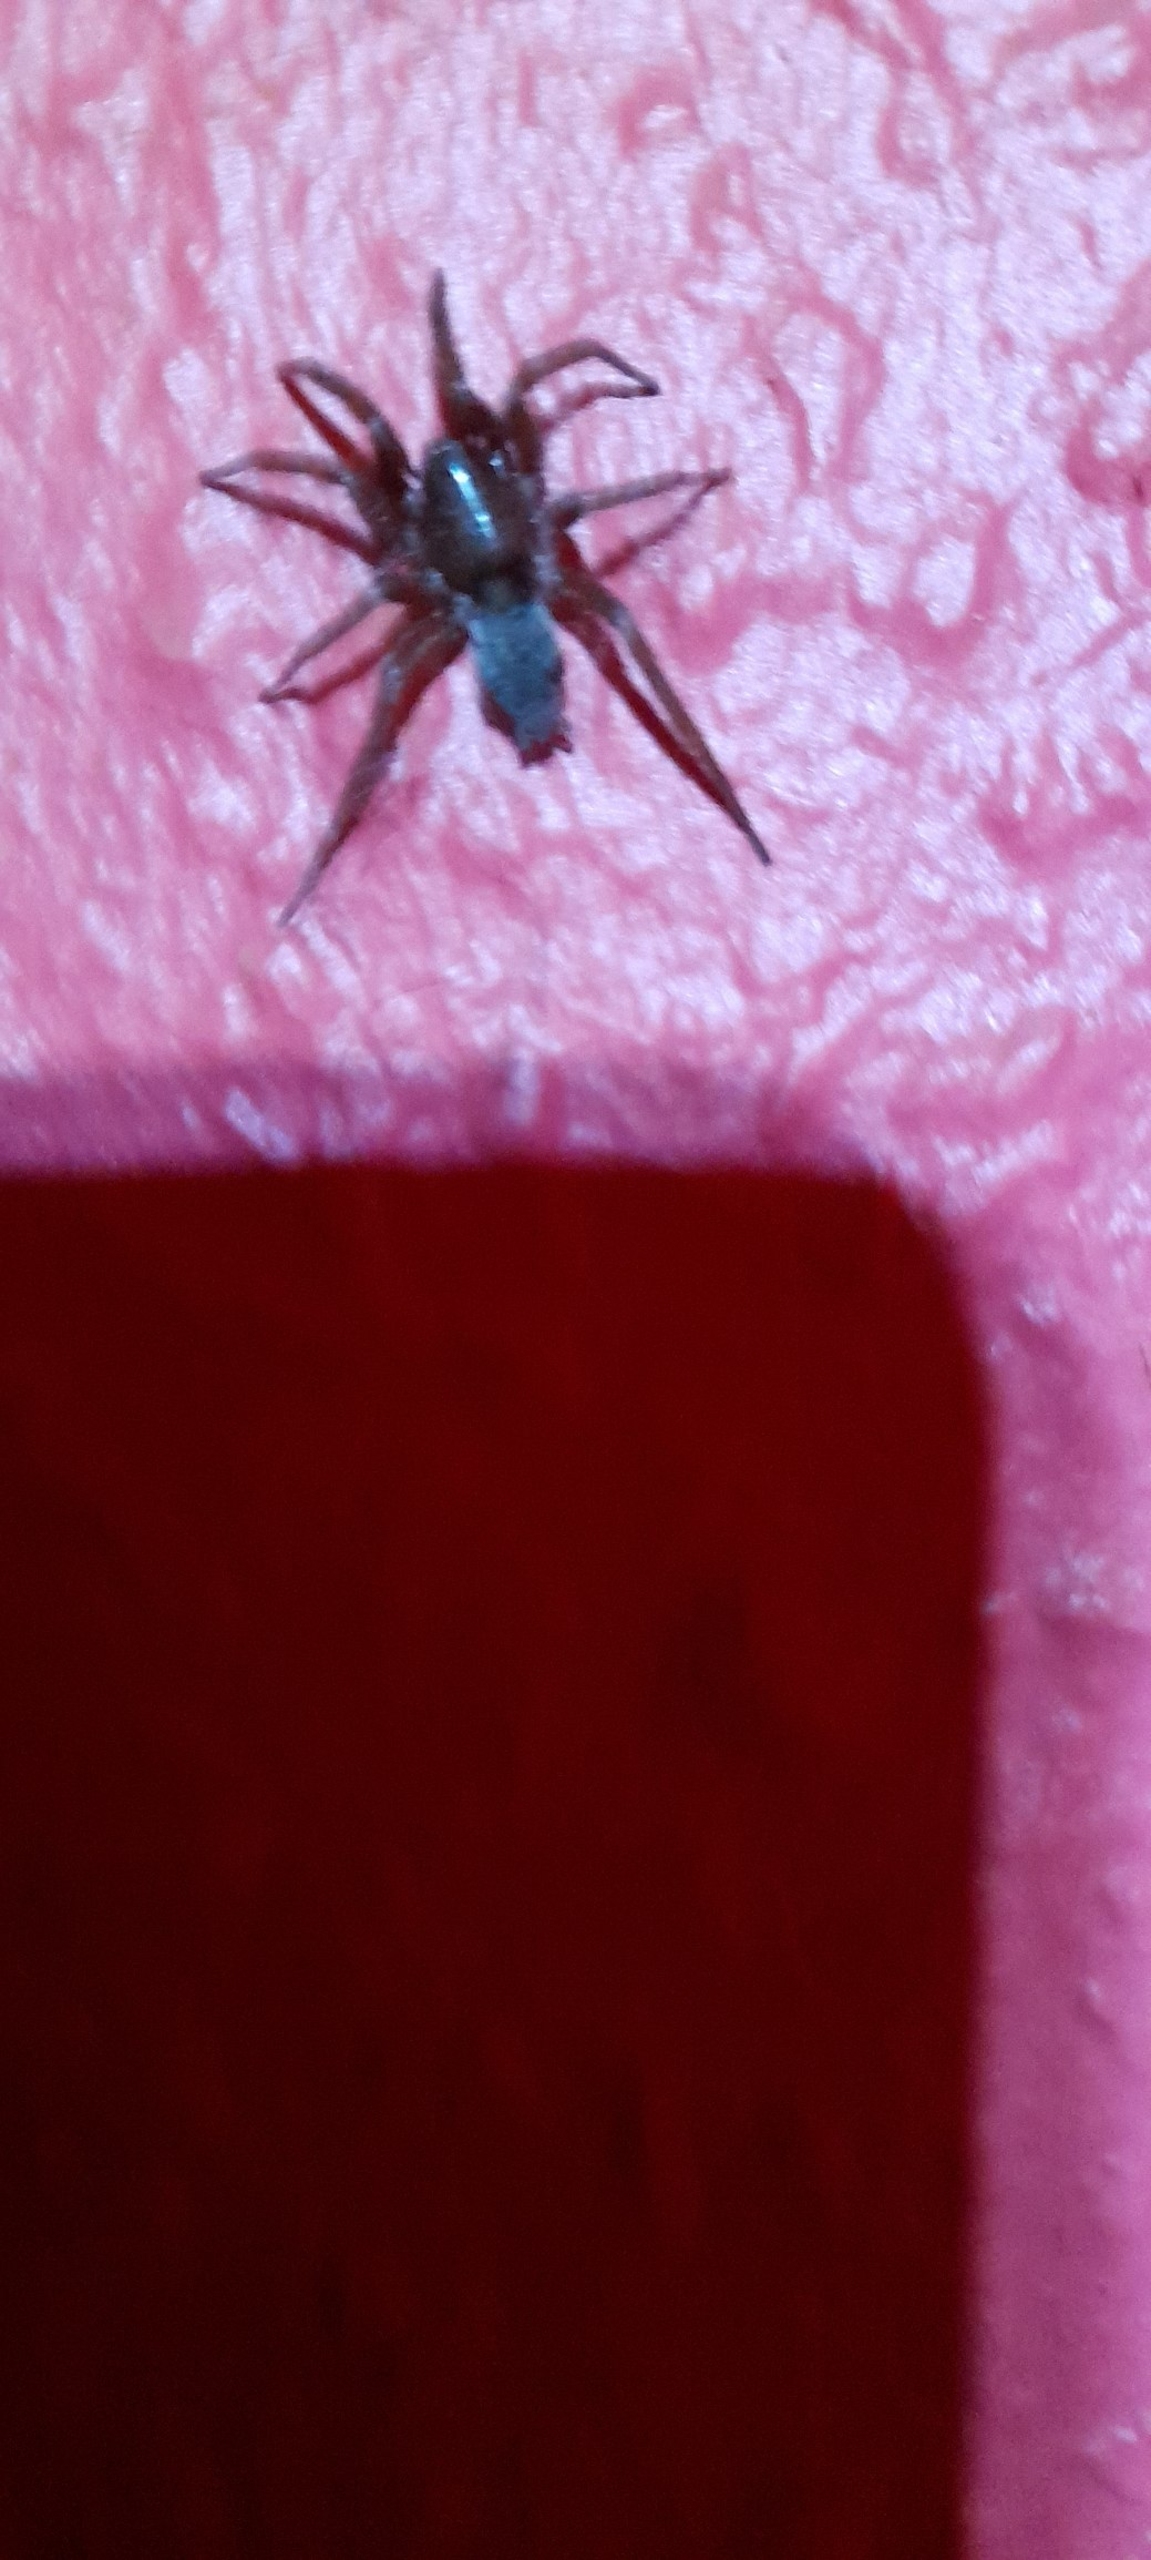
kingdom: Animalia
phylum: Arthropoda
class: Arachnida
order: Araneae
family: Gnaphosidae
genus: Scotophaeus
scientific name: Scotophaeus blackwalli
